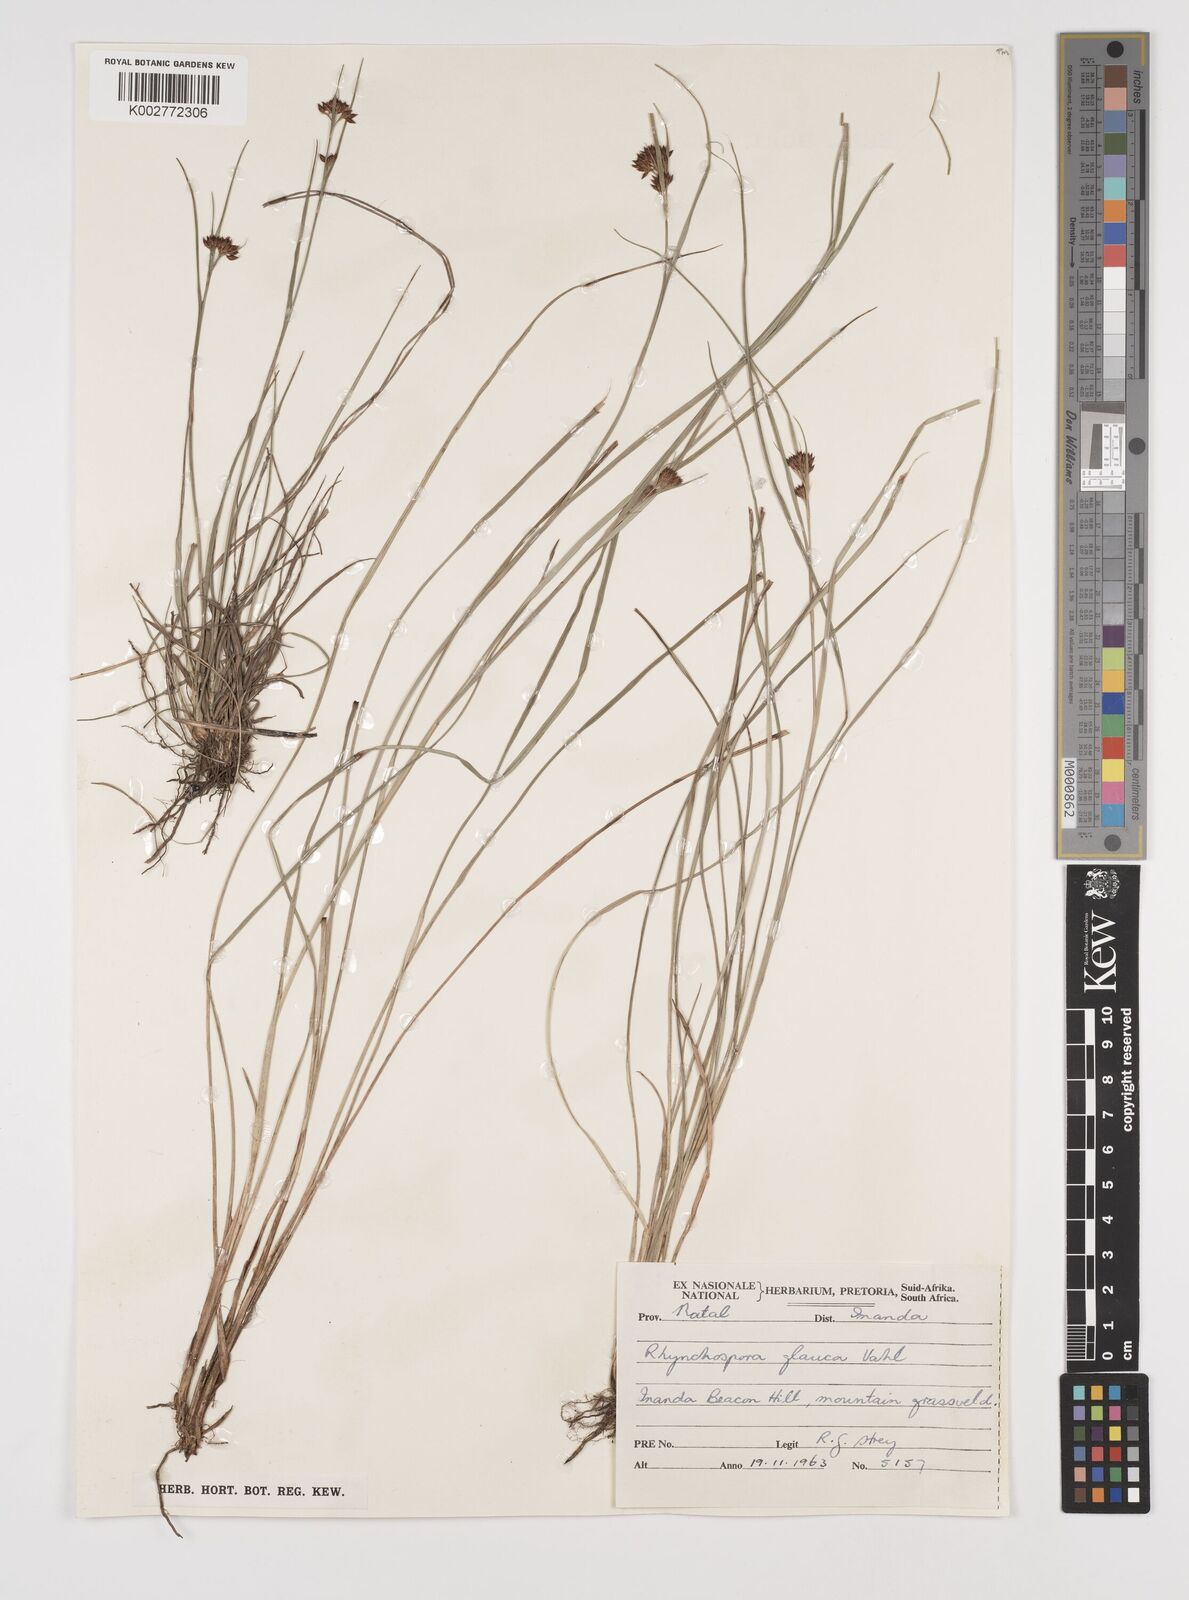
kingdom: Plantae
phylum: Tracheophyta
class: Liliopsida
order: Poales
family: Cyperaceae
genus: Rhynchospora
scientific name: Rhynchospora rugosa
